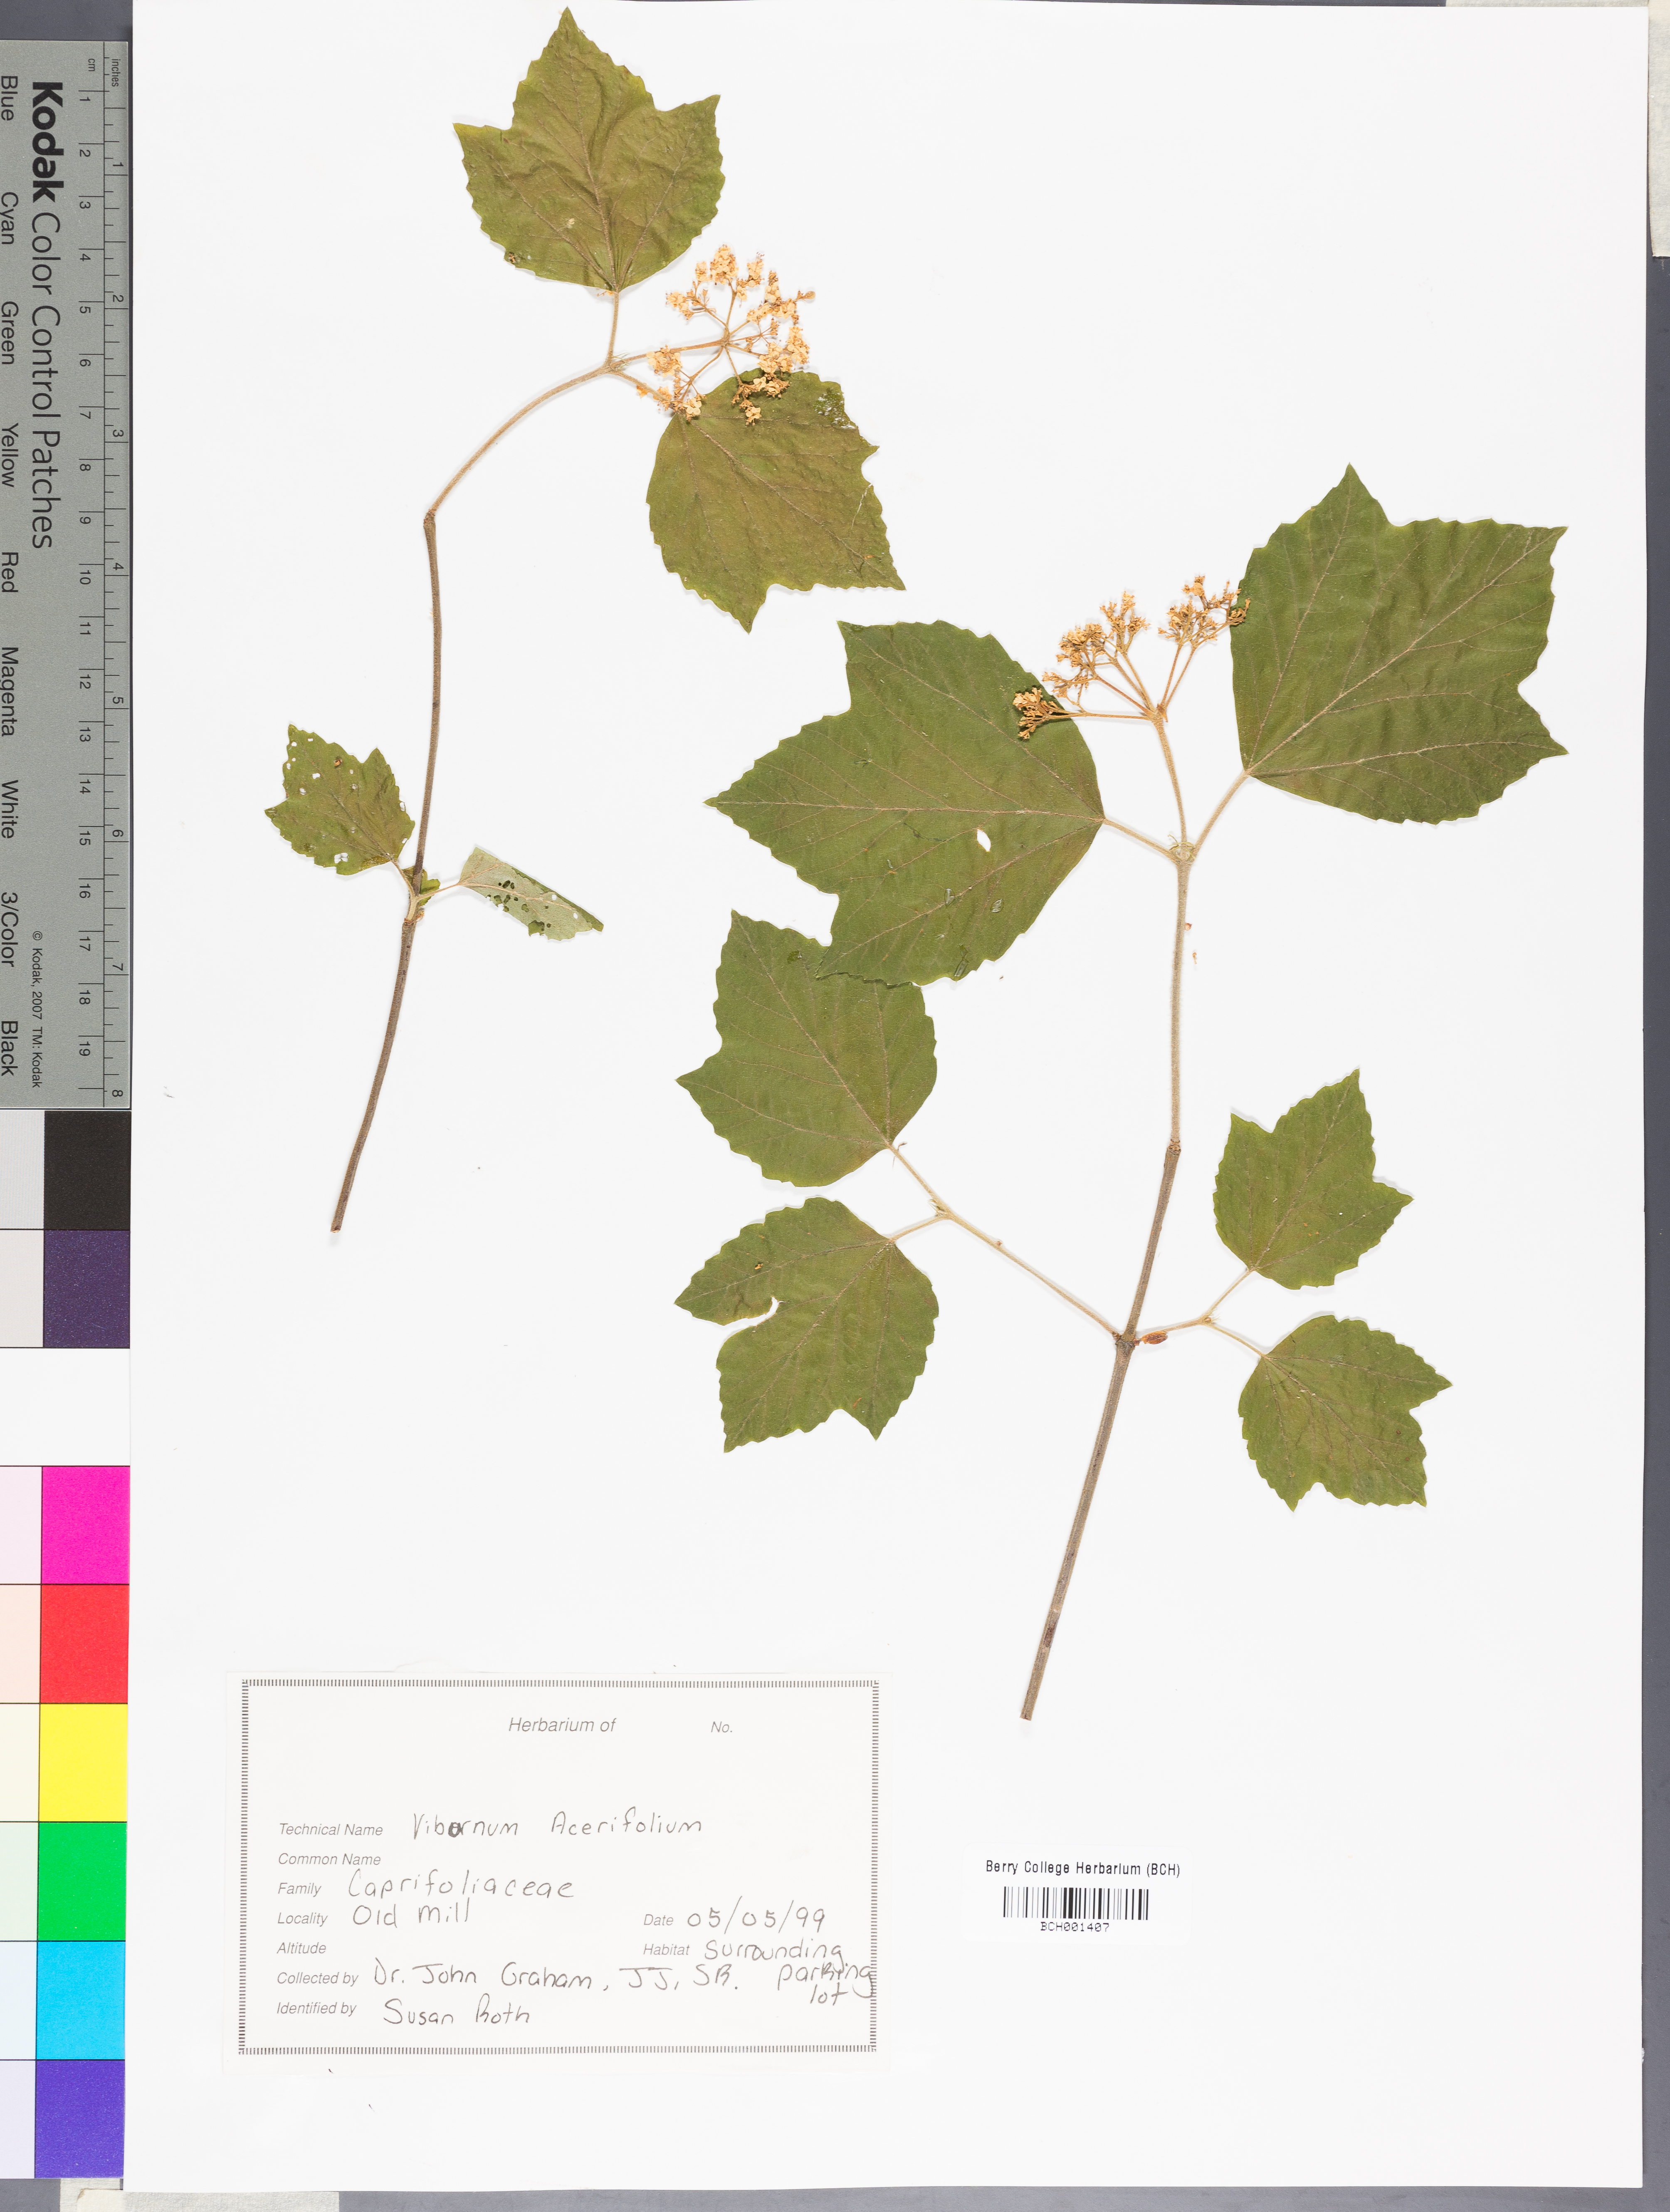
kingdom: Plantae
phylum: Tracheophyta
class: Magnoliopsida
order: Dipsacales
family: Viburnaceae
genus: Viburnum
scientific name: Viburnum acerifolium
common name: Dockmackie
